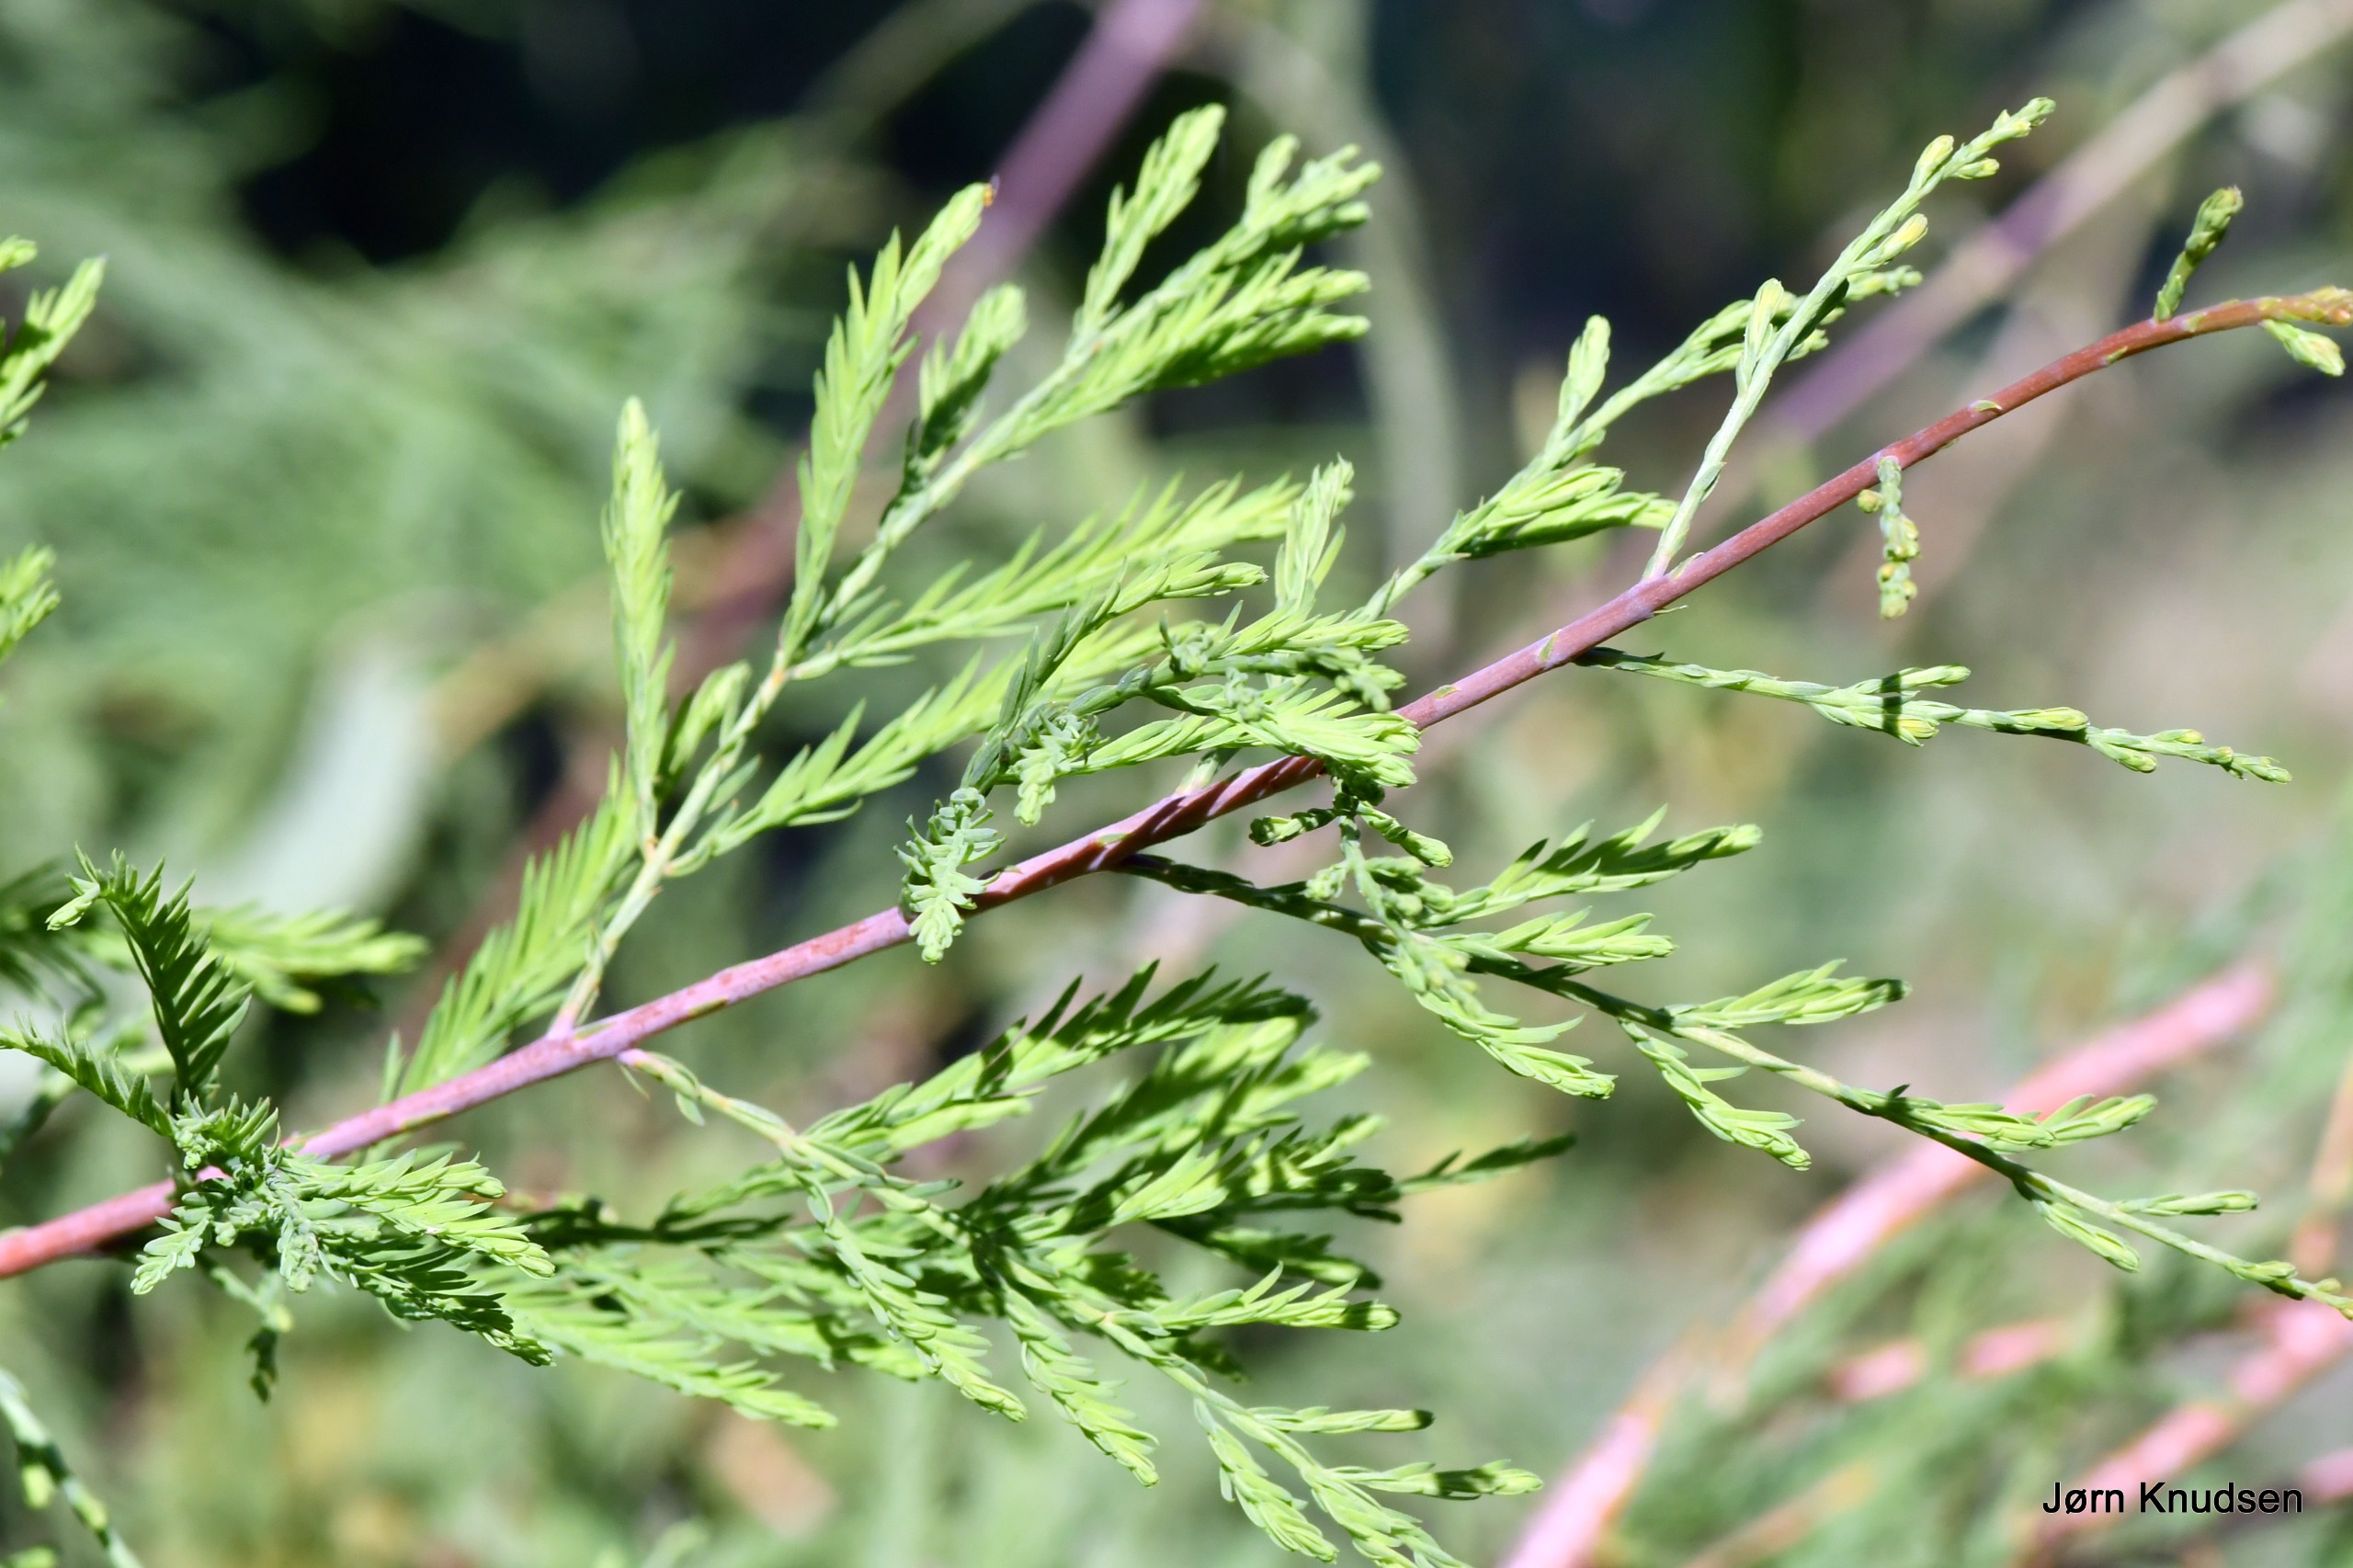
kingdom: Plantae
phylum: Tracheophyta
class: Pinopsida
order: Pinales
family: Cupressaceae
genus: Metasequoia
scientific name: Metasequoia glyptostroboides
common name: Vandgran
